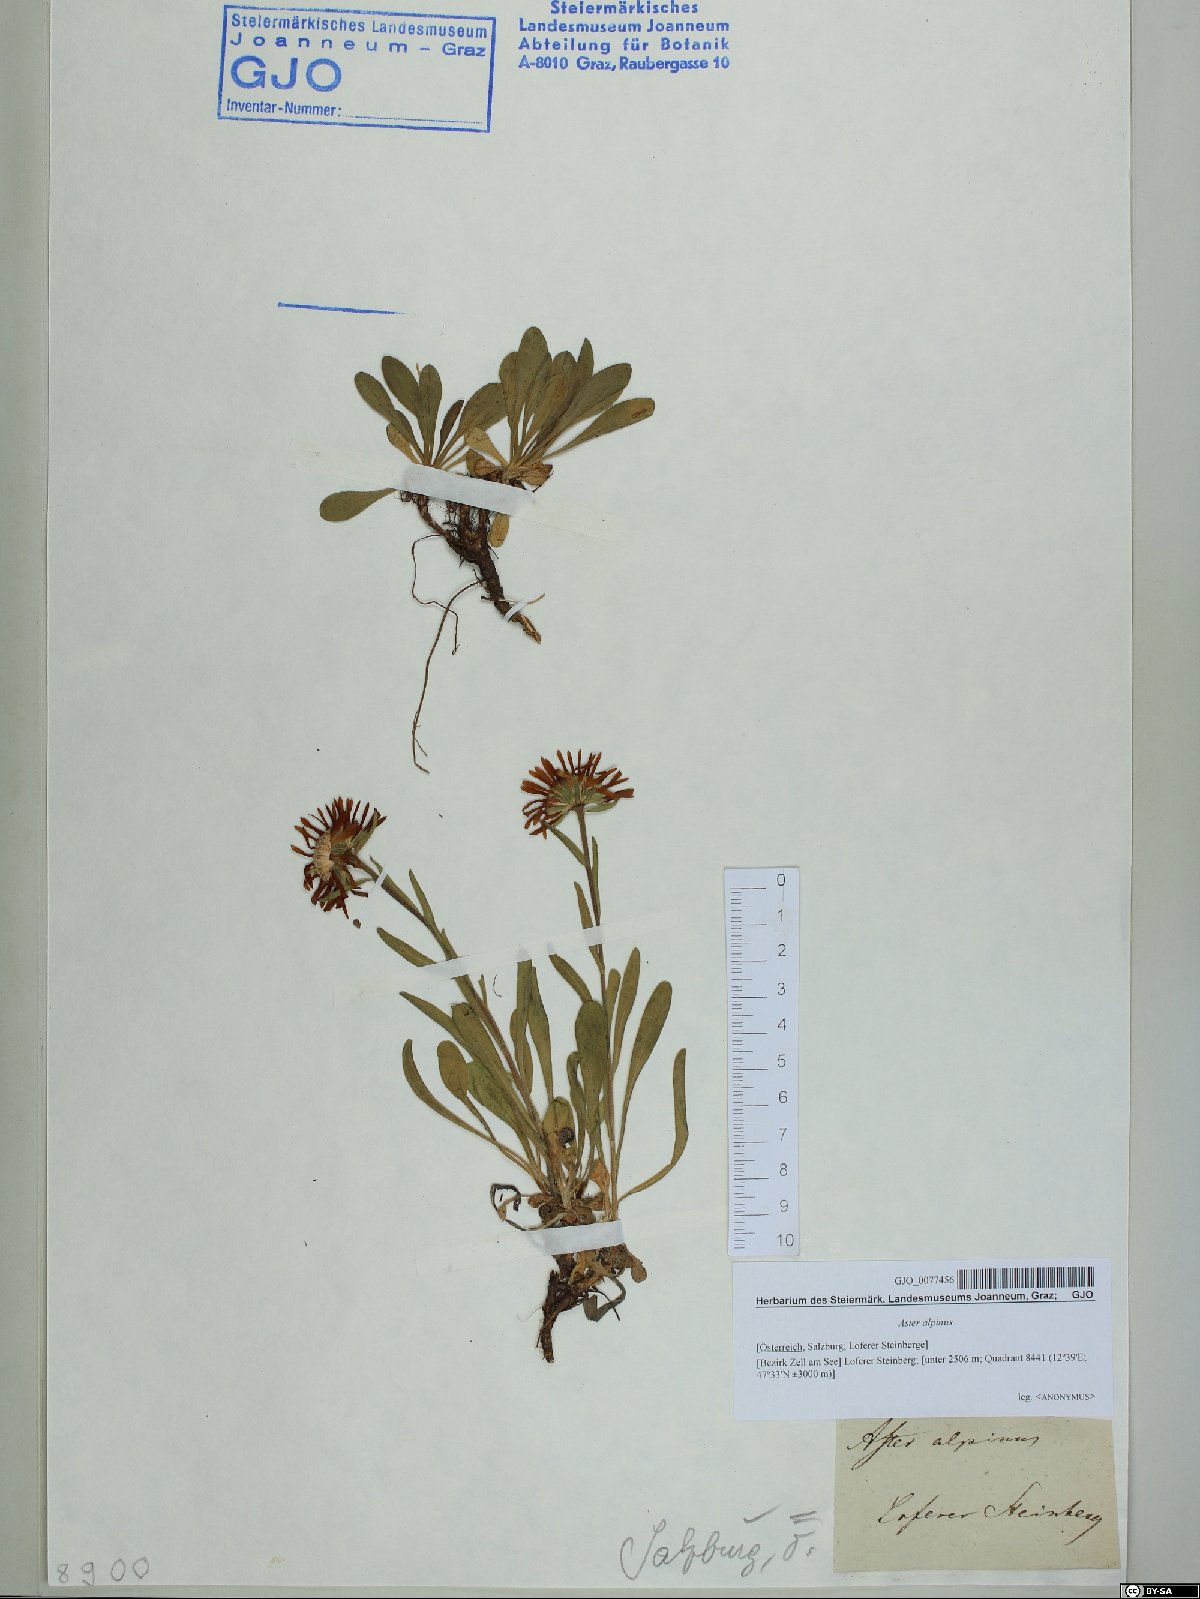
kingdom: Plantae
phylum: Tracheophyta
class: Magnoliopsida
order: Asterales
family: Asteraceae
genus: Aster
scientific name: Aster alpinus
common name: Alpine aster
